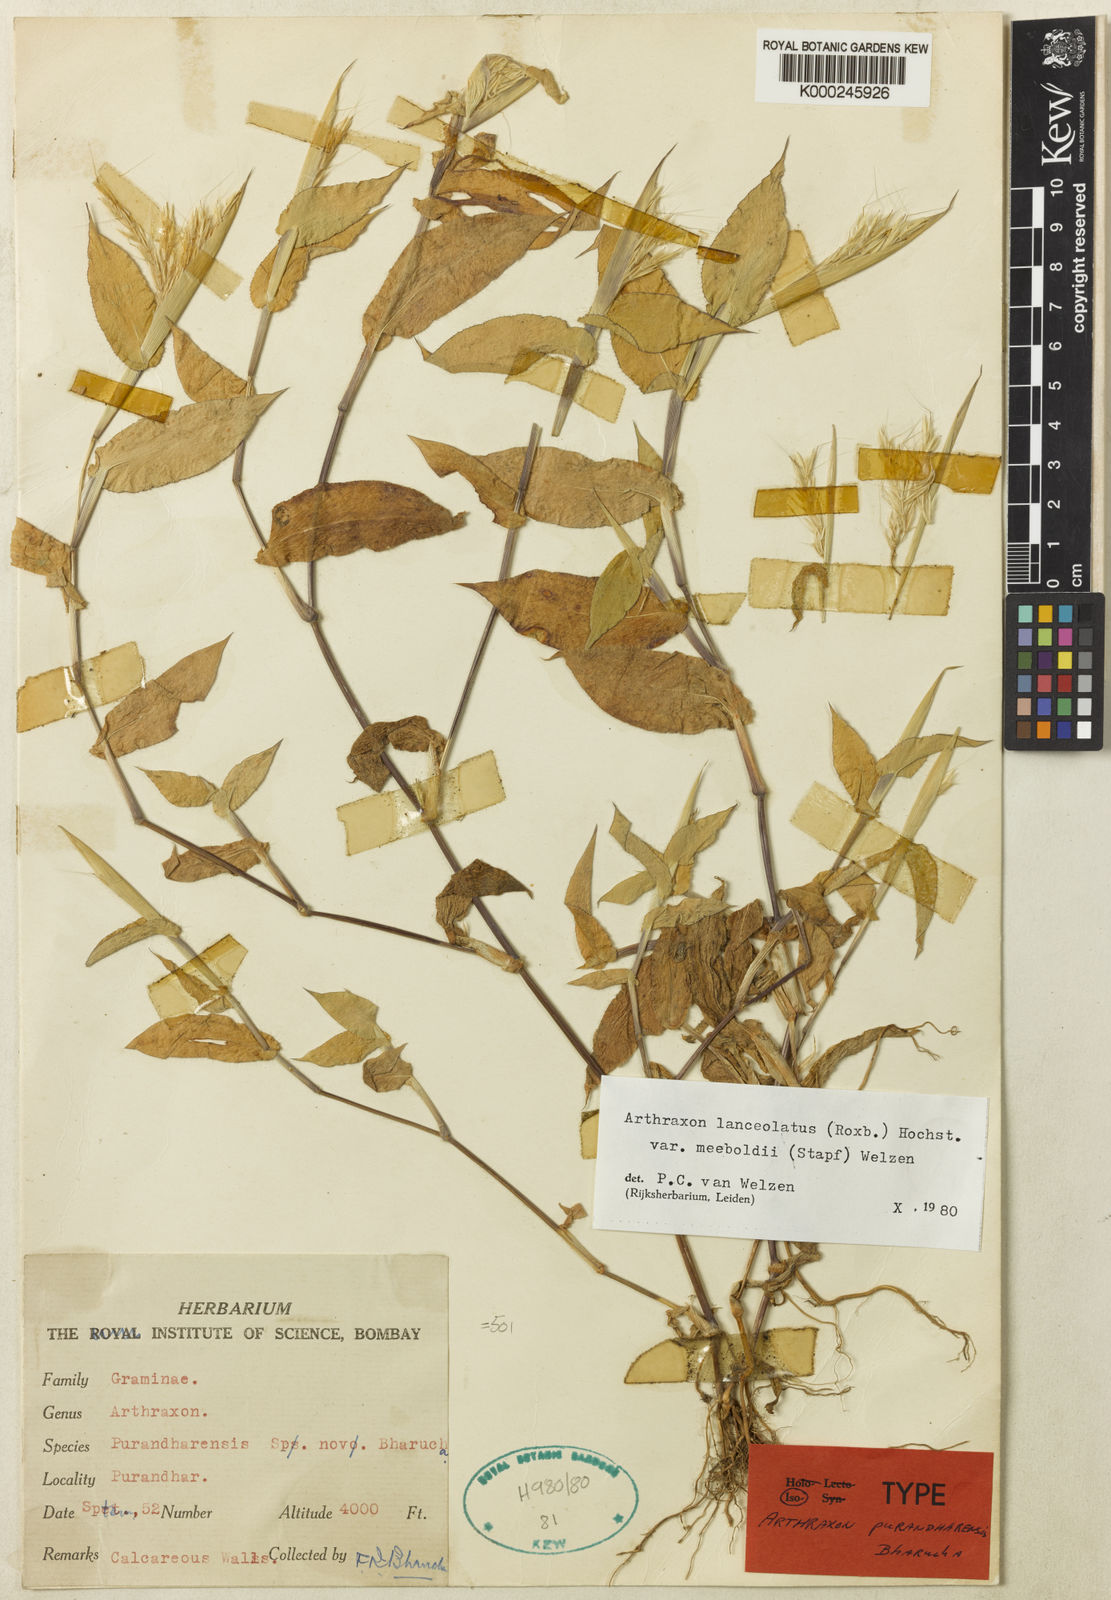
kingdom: Plantae
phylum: Tracheophyta
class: Liliopsida
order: Poales
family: Poaceae
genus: Arthraxon
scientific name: Arthraxon meeboldii
